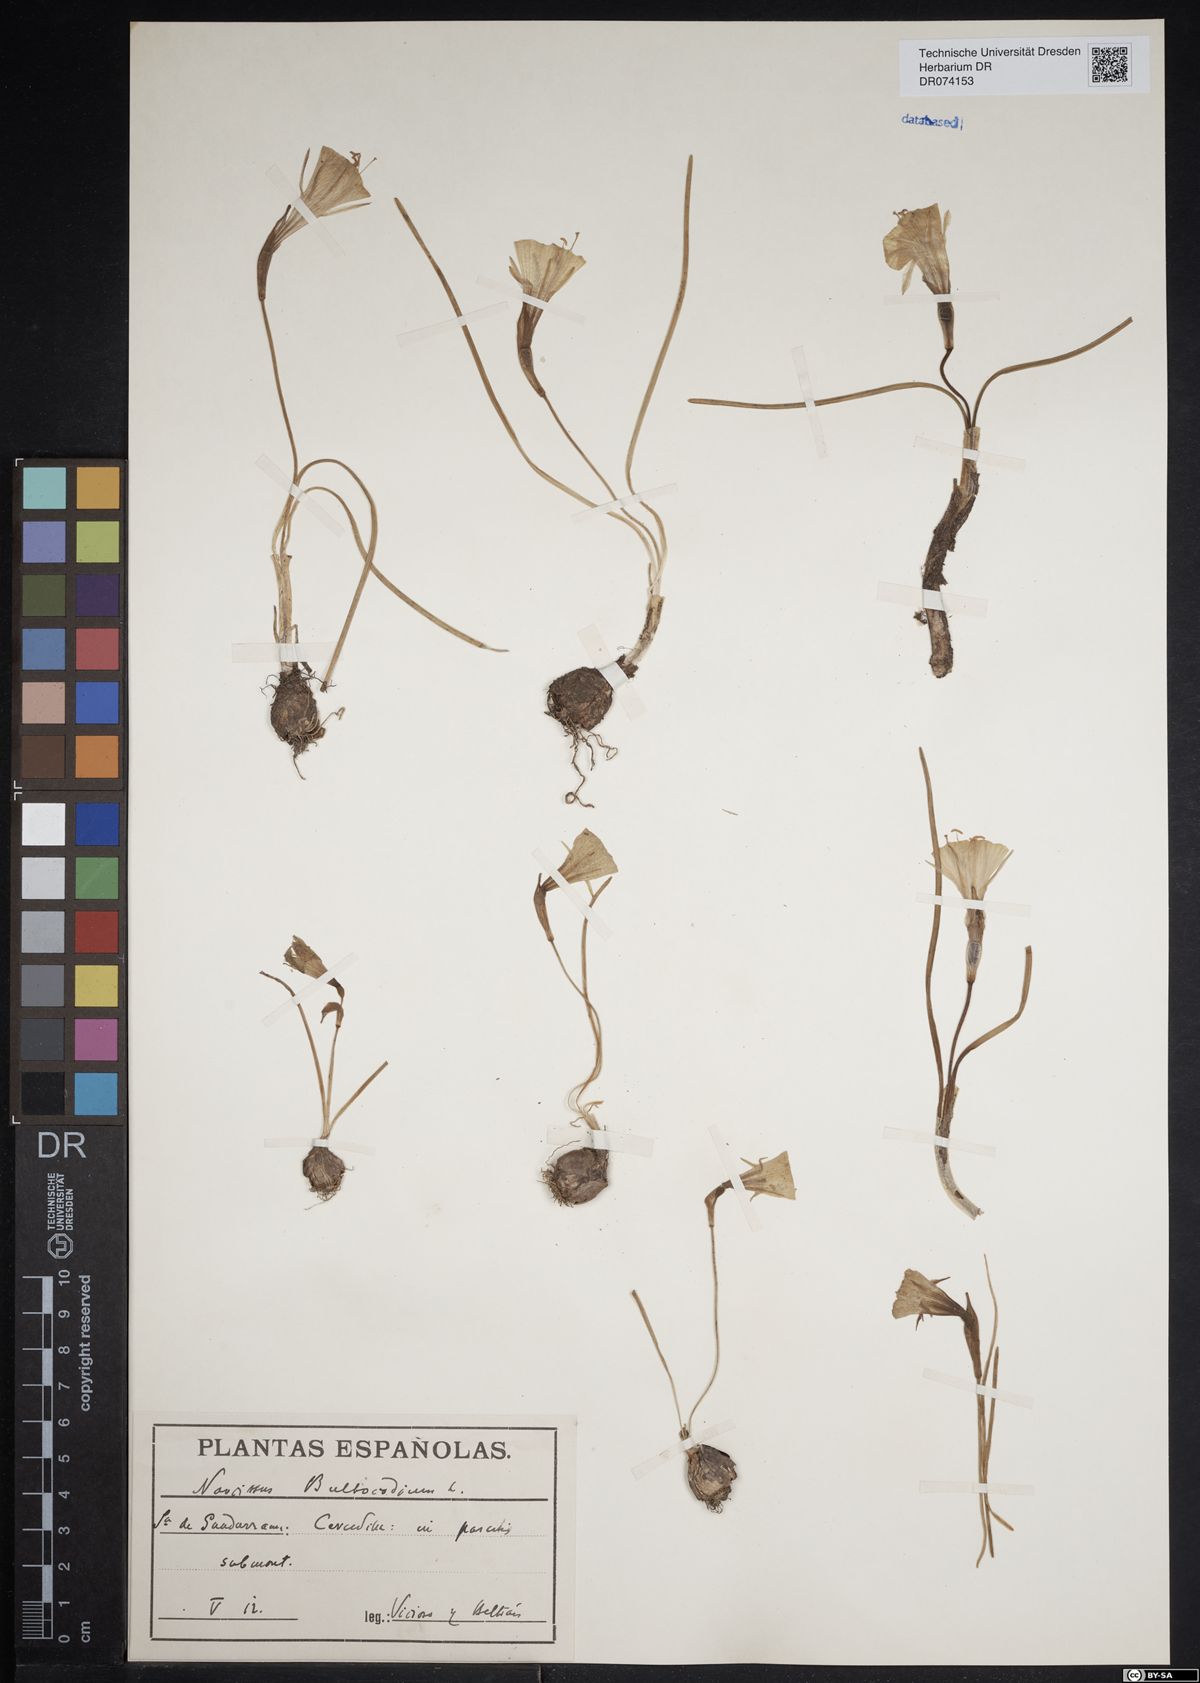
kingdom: Plantae
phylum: Tracheophyta
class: Liliopsida
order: Asparagales
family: Amaryllidaceae
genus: Narcissus
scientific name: Narcissus bulbocodium
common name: Hoop-petticoat daffodil
